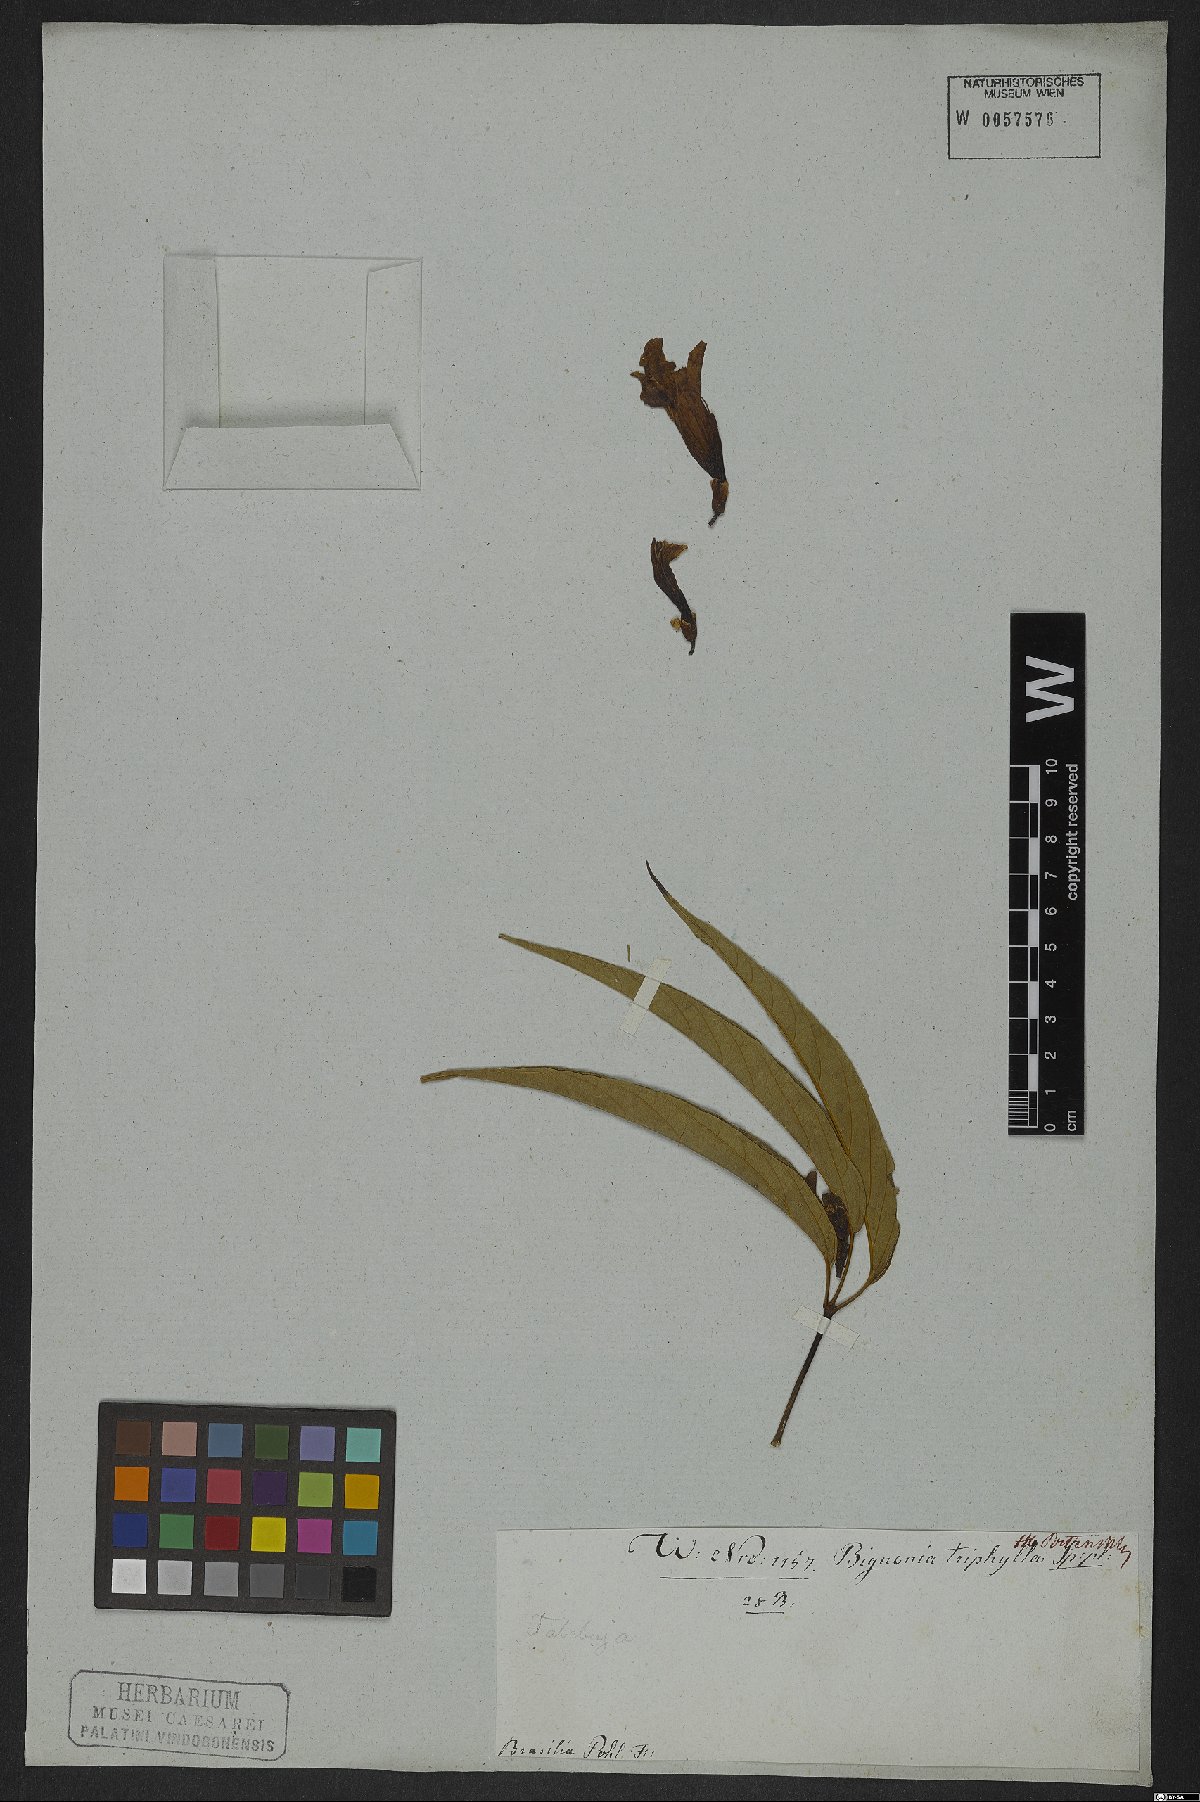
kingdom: Plantae
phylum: Tracheophyta
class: Magnoliopsida
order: Lamiales
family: Bignoniaceae
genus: Cuspidaria
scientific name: Cuspidaria sceptrum
